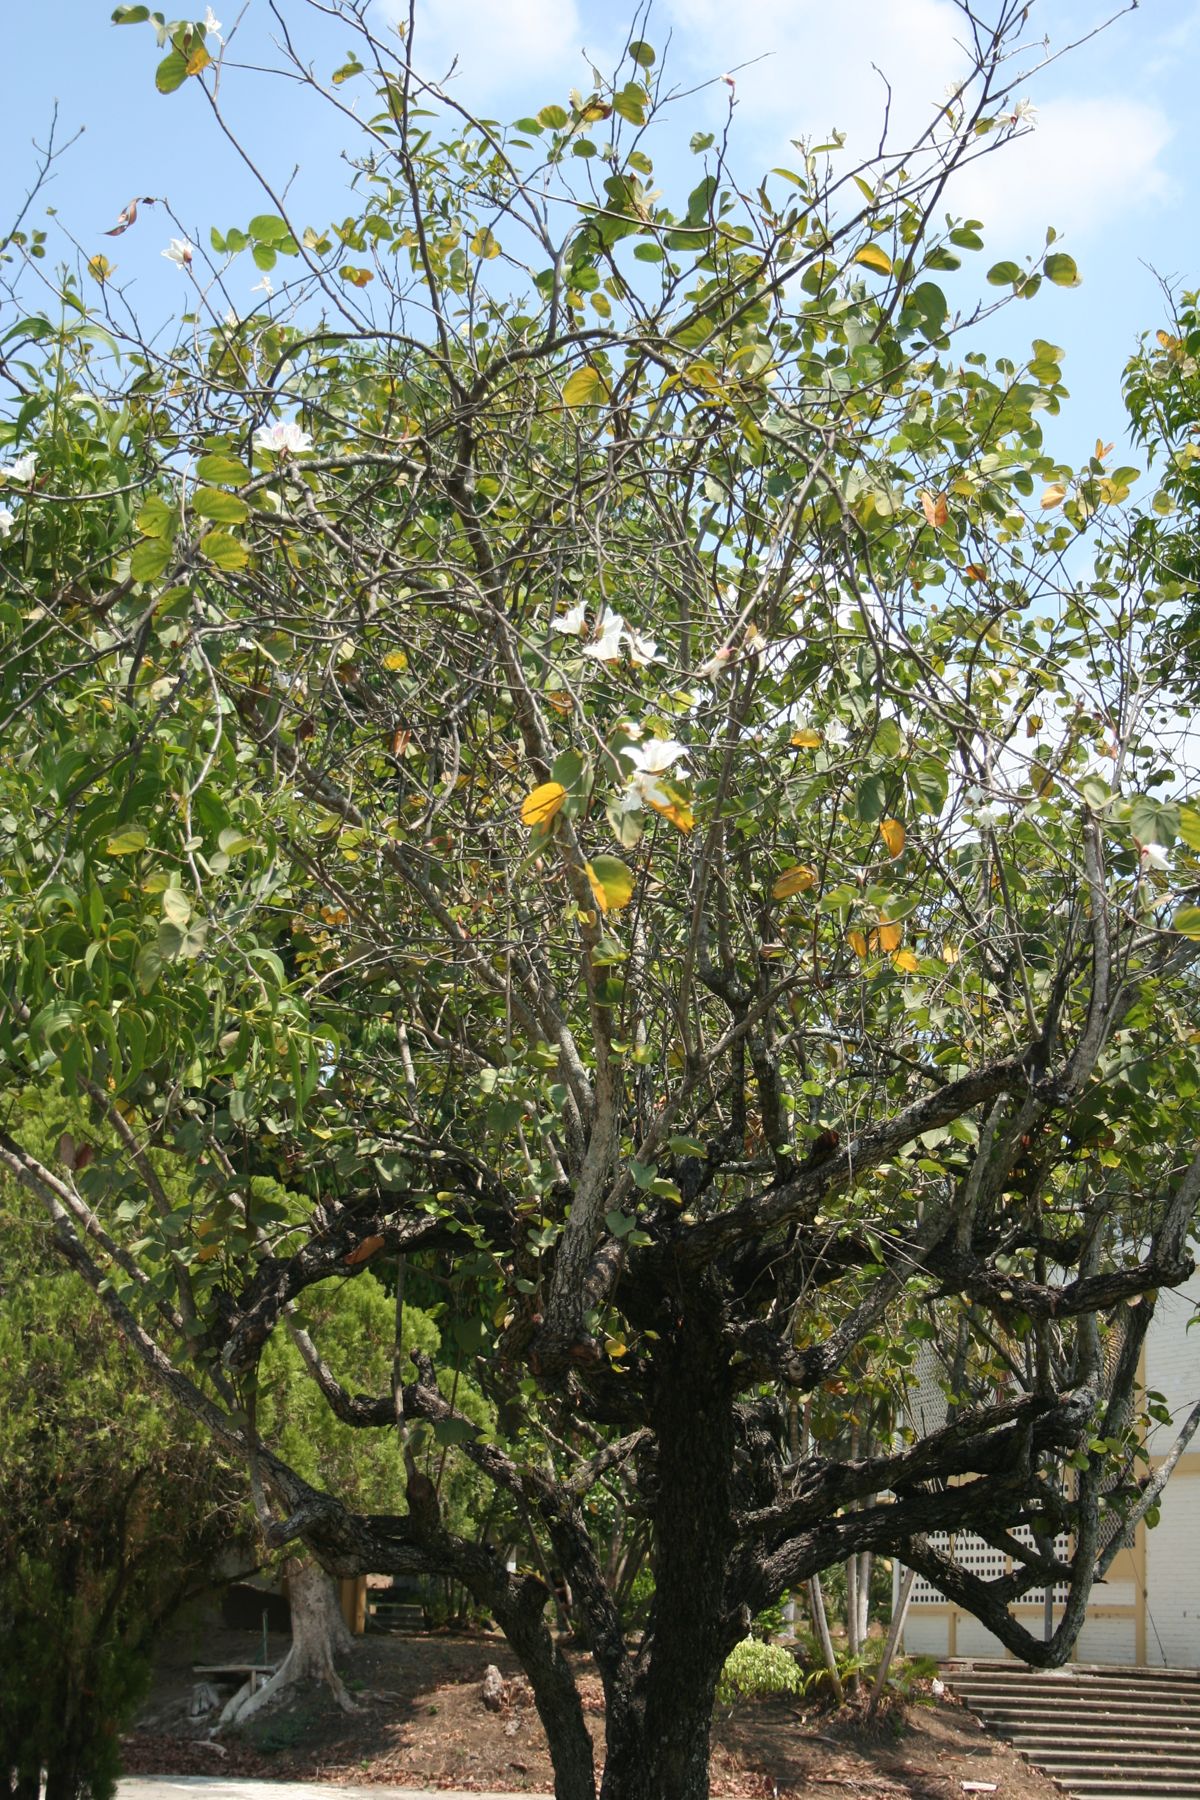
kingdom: Plantae
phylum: Tracheophyta
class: Magnoliopsida
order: Fabales
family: Fabaceae
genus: Bauhinia
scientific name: Bauhinia variegata
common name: Mountain ebony
